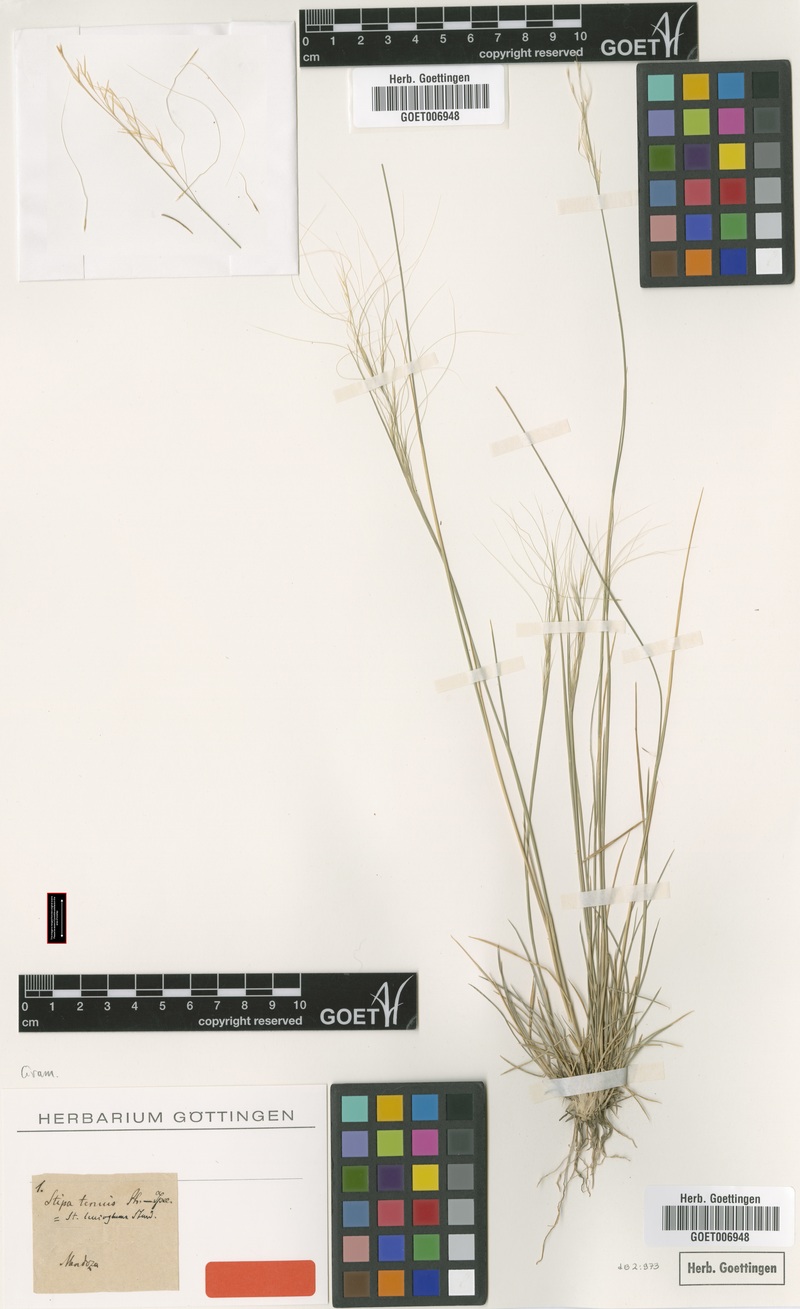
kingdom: Plantae
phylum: Tracheophyta
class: Liliopsida
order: Poales
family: Poaceae
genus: Nassella
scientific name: Nassella tenuis
